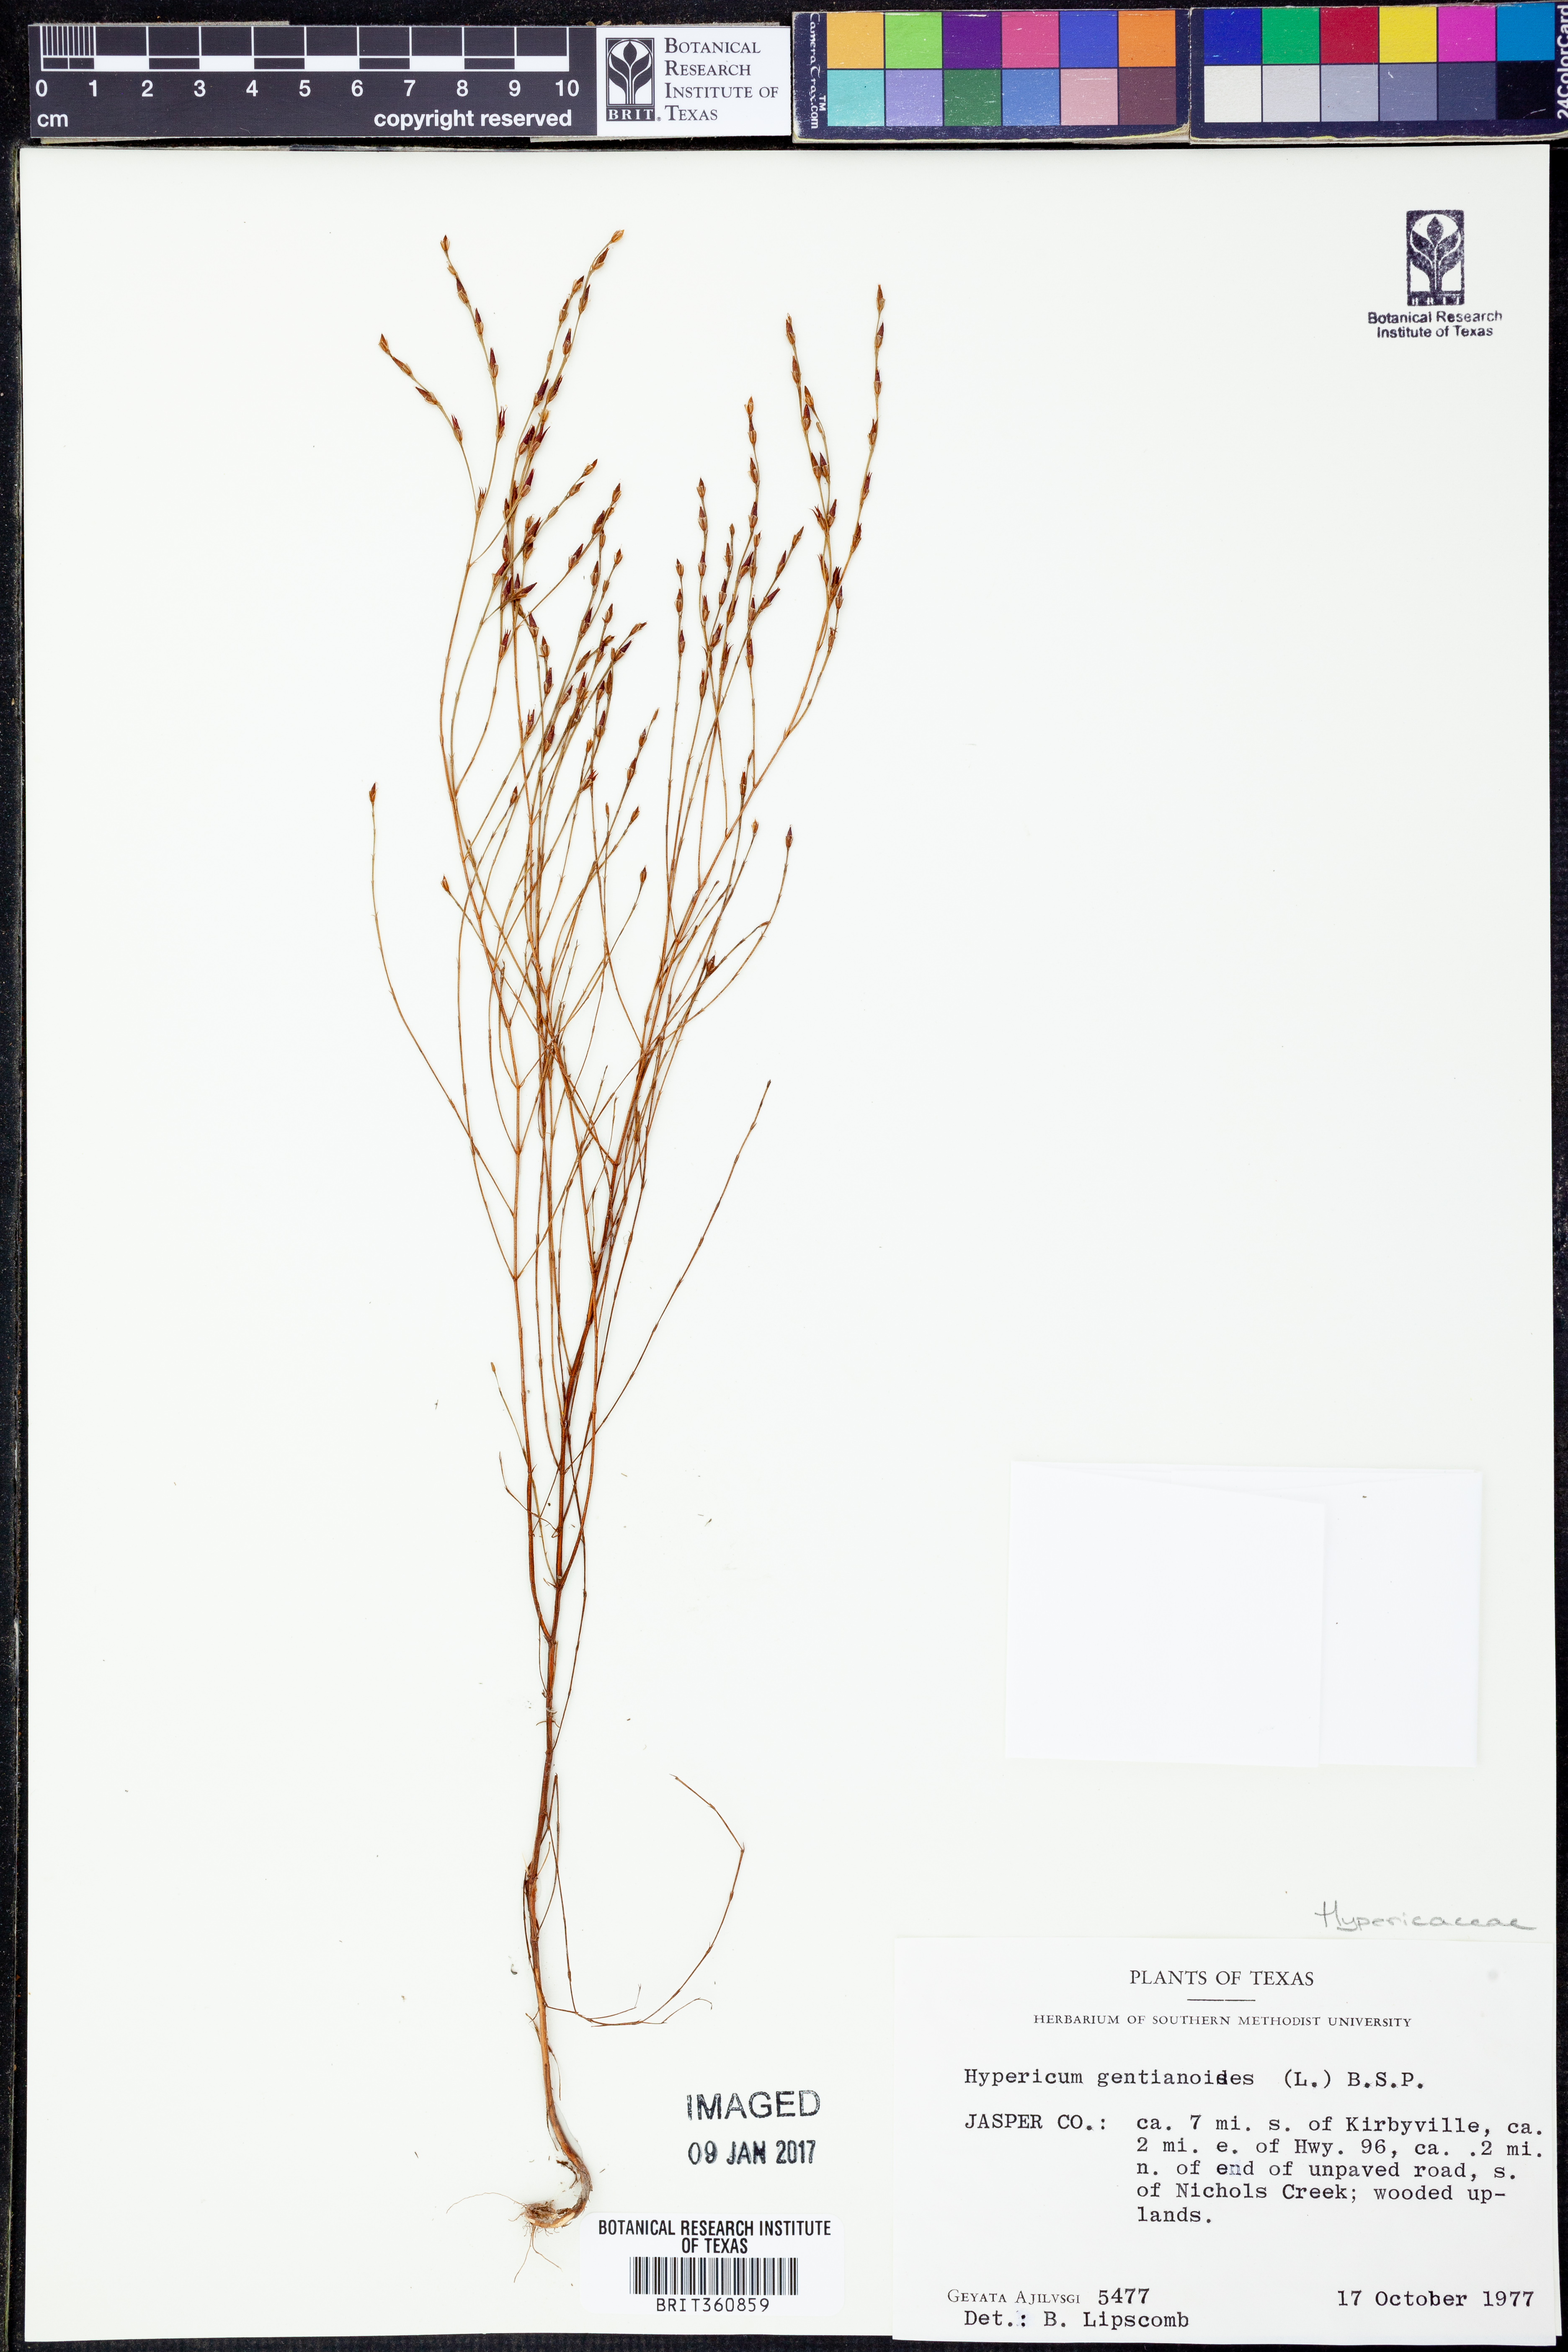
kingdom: Plantae
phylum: Tracheophyta
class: Magnoliopsida
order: Malpighiales
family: Hypericaceae
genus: Hypericum
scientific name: Hypericum gentianoides
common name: Gentian-leaved st. john's-wort
